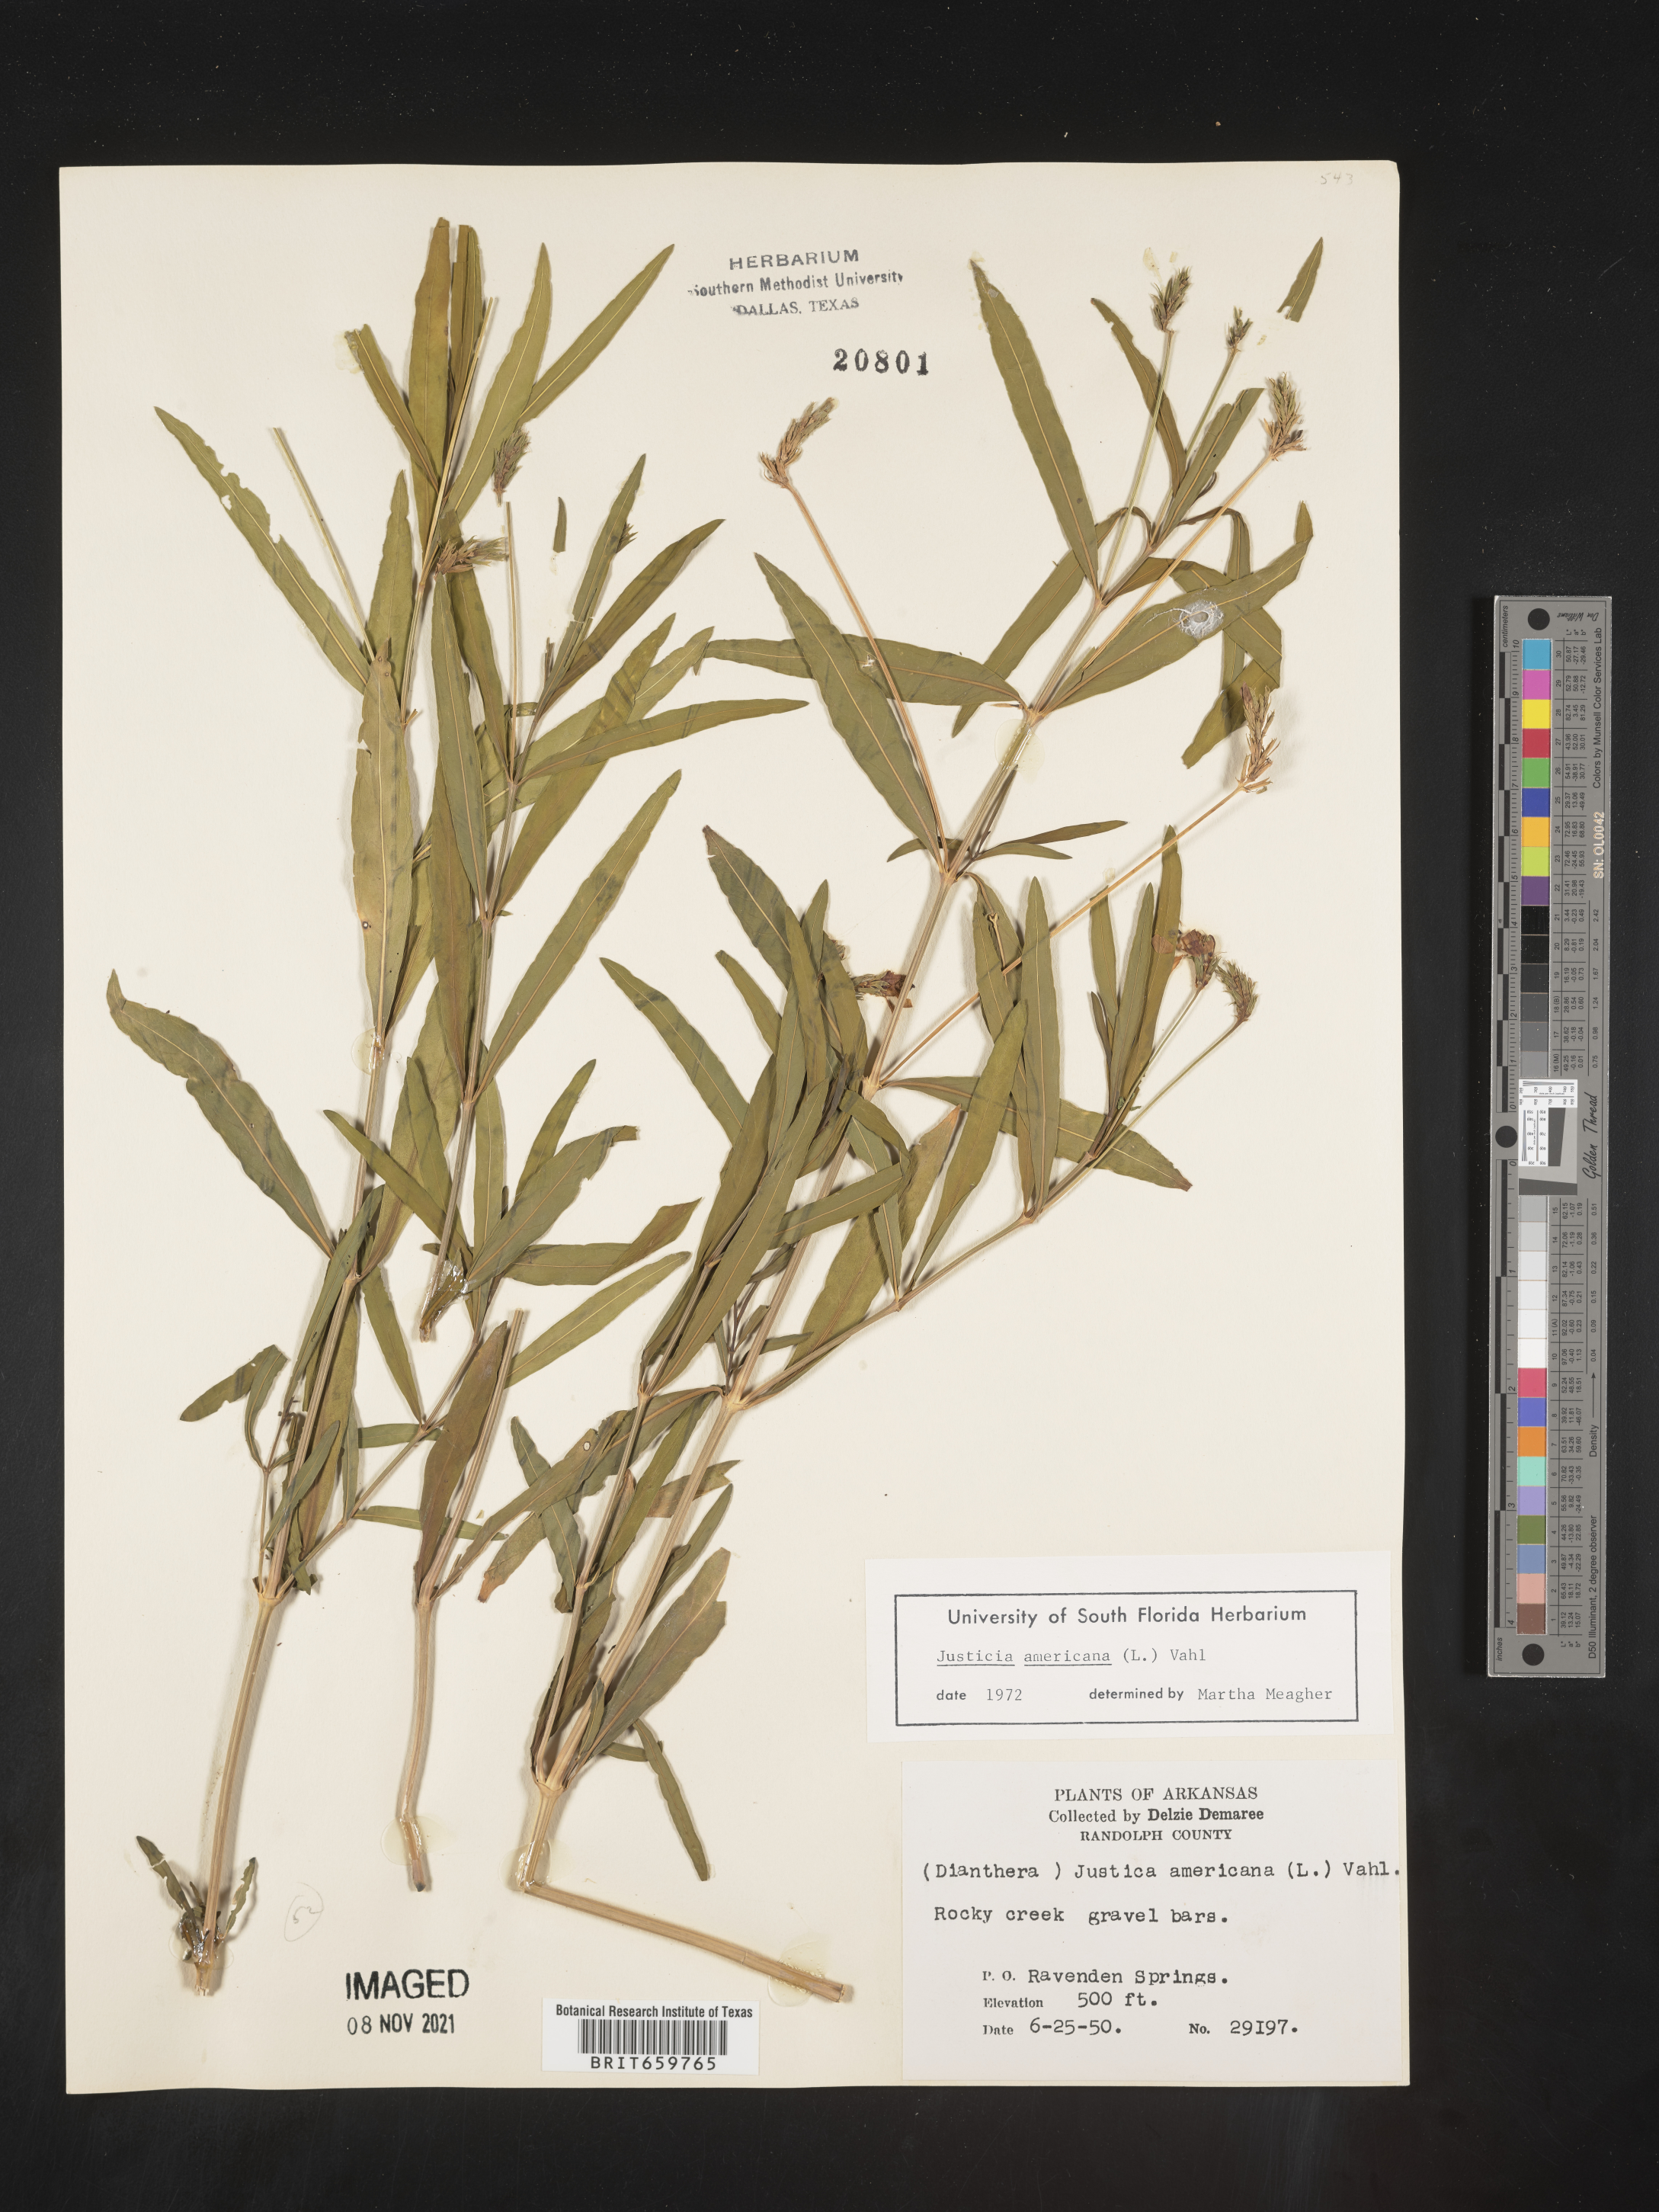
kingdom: Plantae
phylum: Tracheophyta
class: Magnoliopsida
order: Lamiales
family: Acanthaceae
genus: Dianthera
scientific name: Dianthera americana
